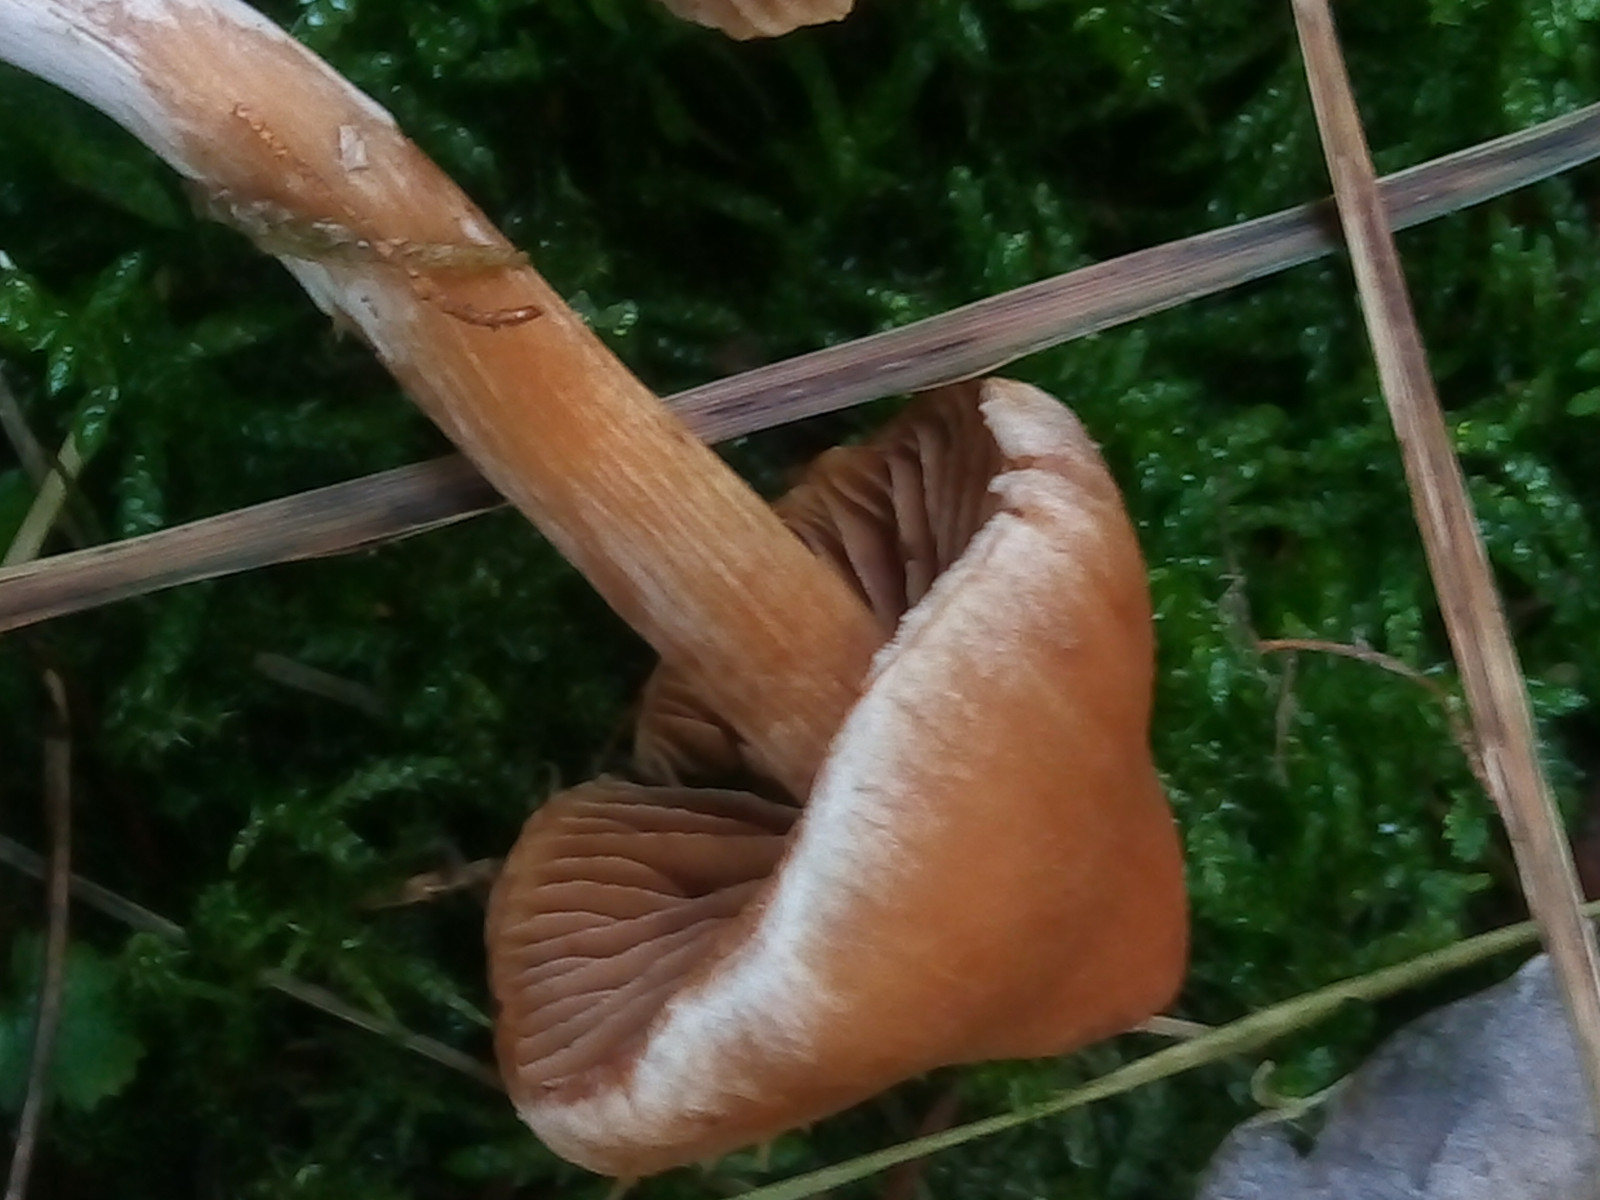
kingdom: Fungi
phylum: Basidiomycota
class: Agaricomycetes
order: Agaricales
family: Cortinariaceae
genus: Cortinarius
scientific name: Cortinarius luridus
